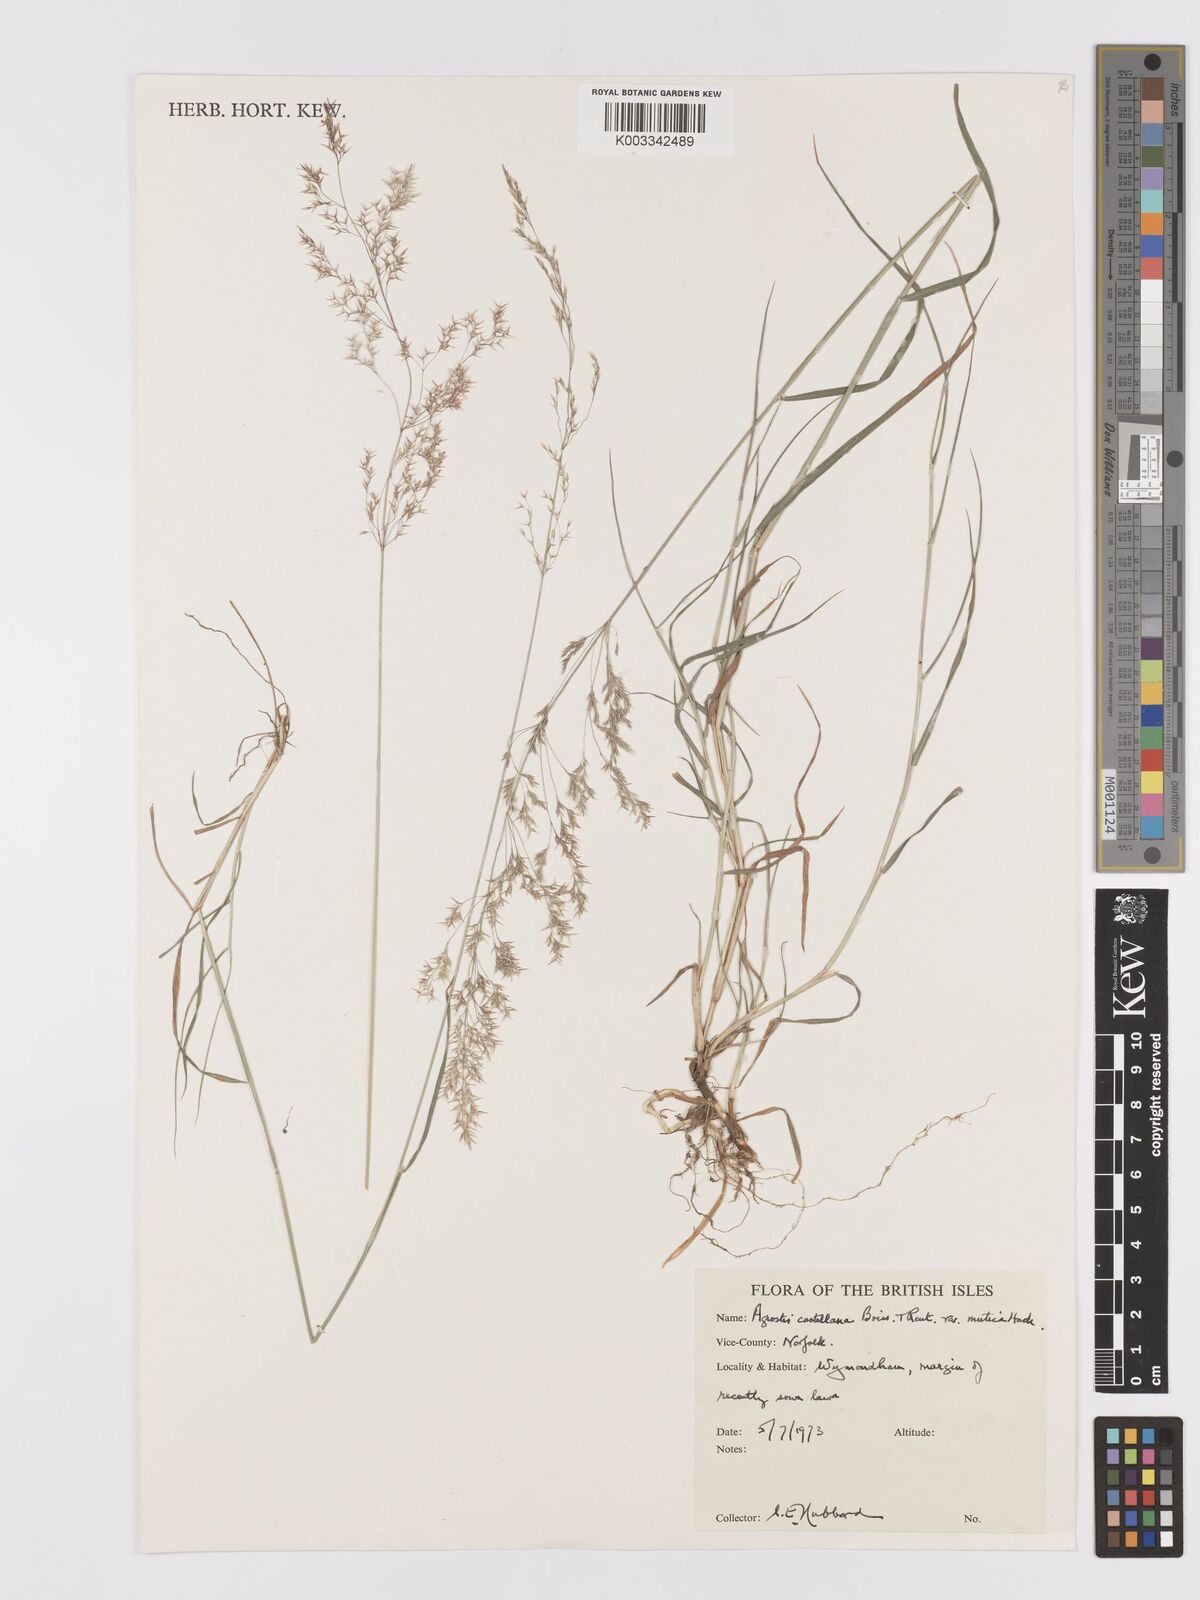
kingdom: Plantae
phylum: Tracheophyta
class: Liliopsida
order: Poales
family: Poaceae
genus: Agrostis
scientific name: Agrostis castellana
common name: Highland bent
